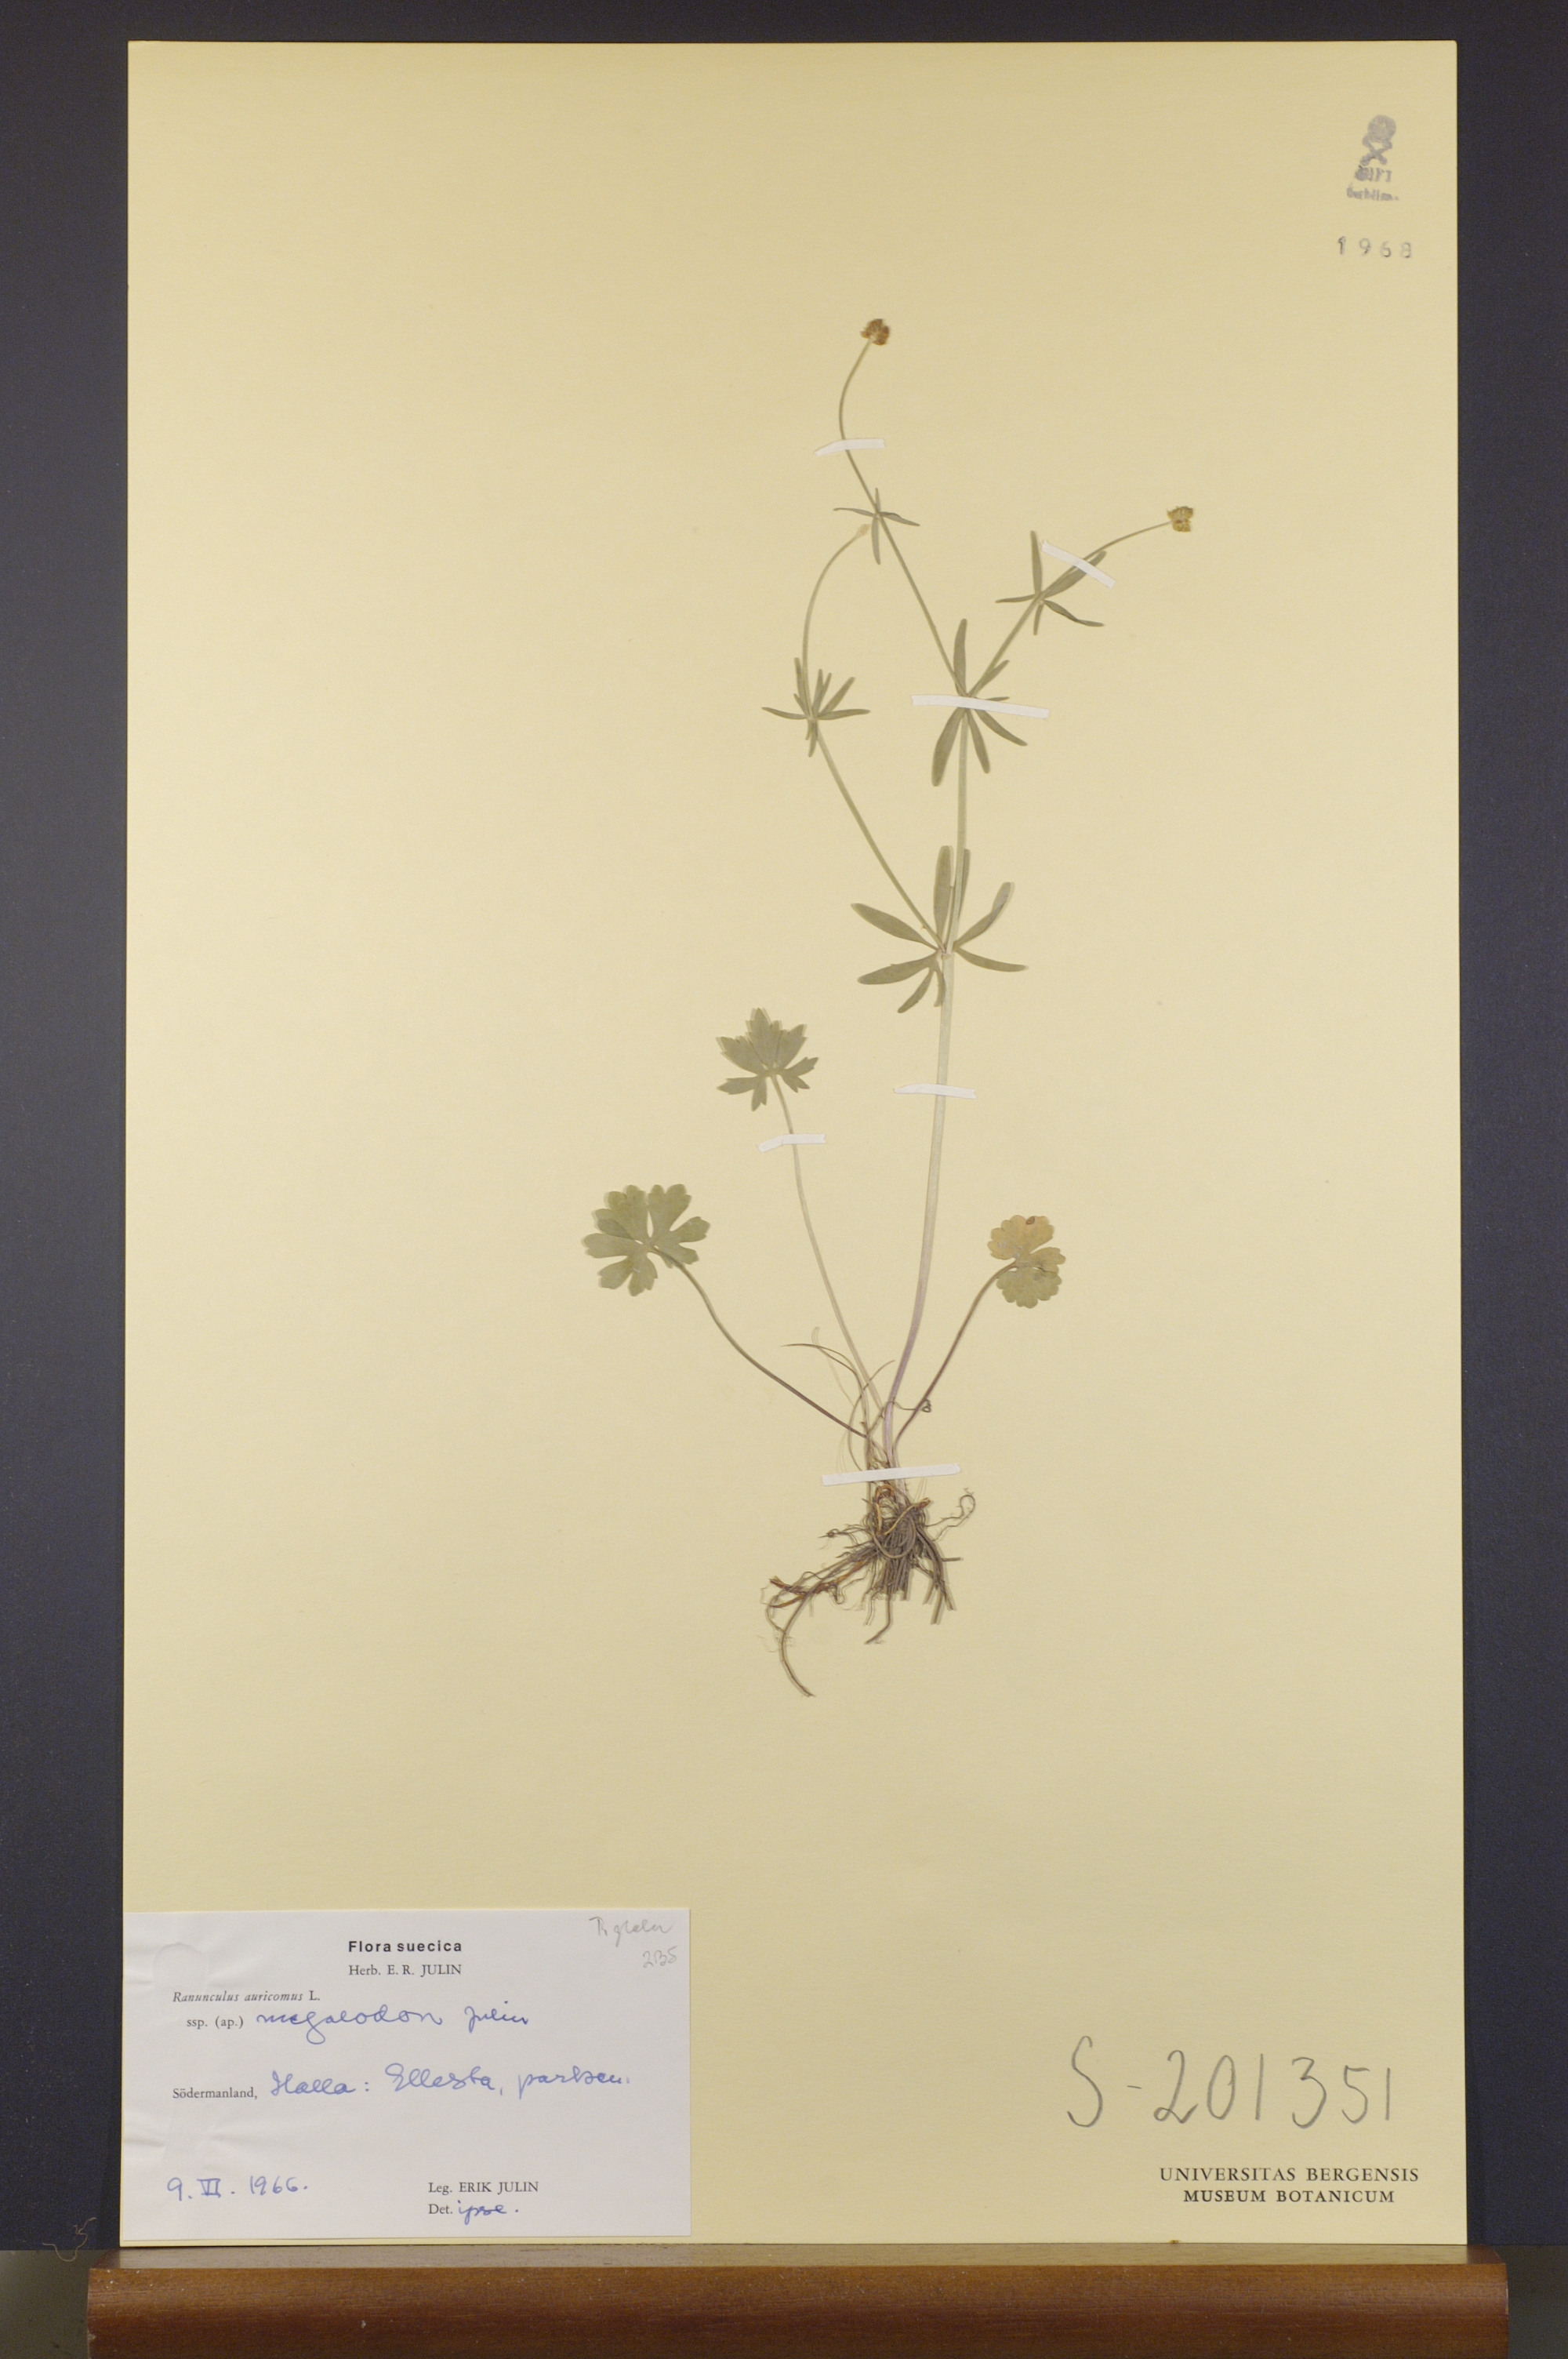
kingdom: Plantae
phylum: Tracheophyta
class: Magnoliopsida
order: Ranunculales
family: Ranunculaceae
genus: Ranunculus
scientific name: Ranunculus megalodon
